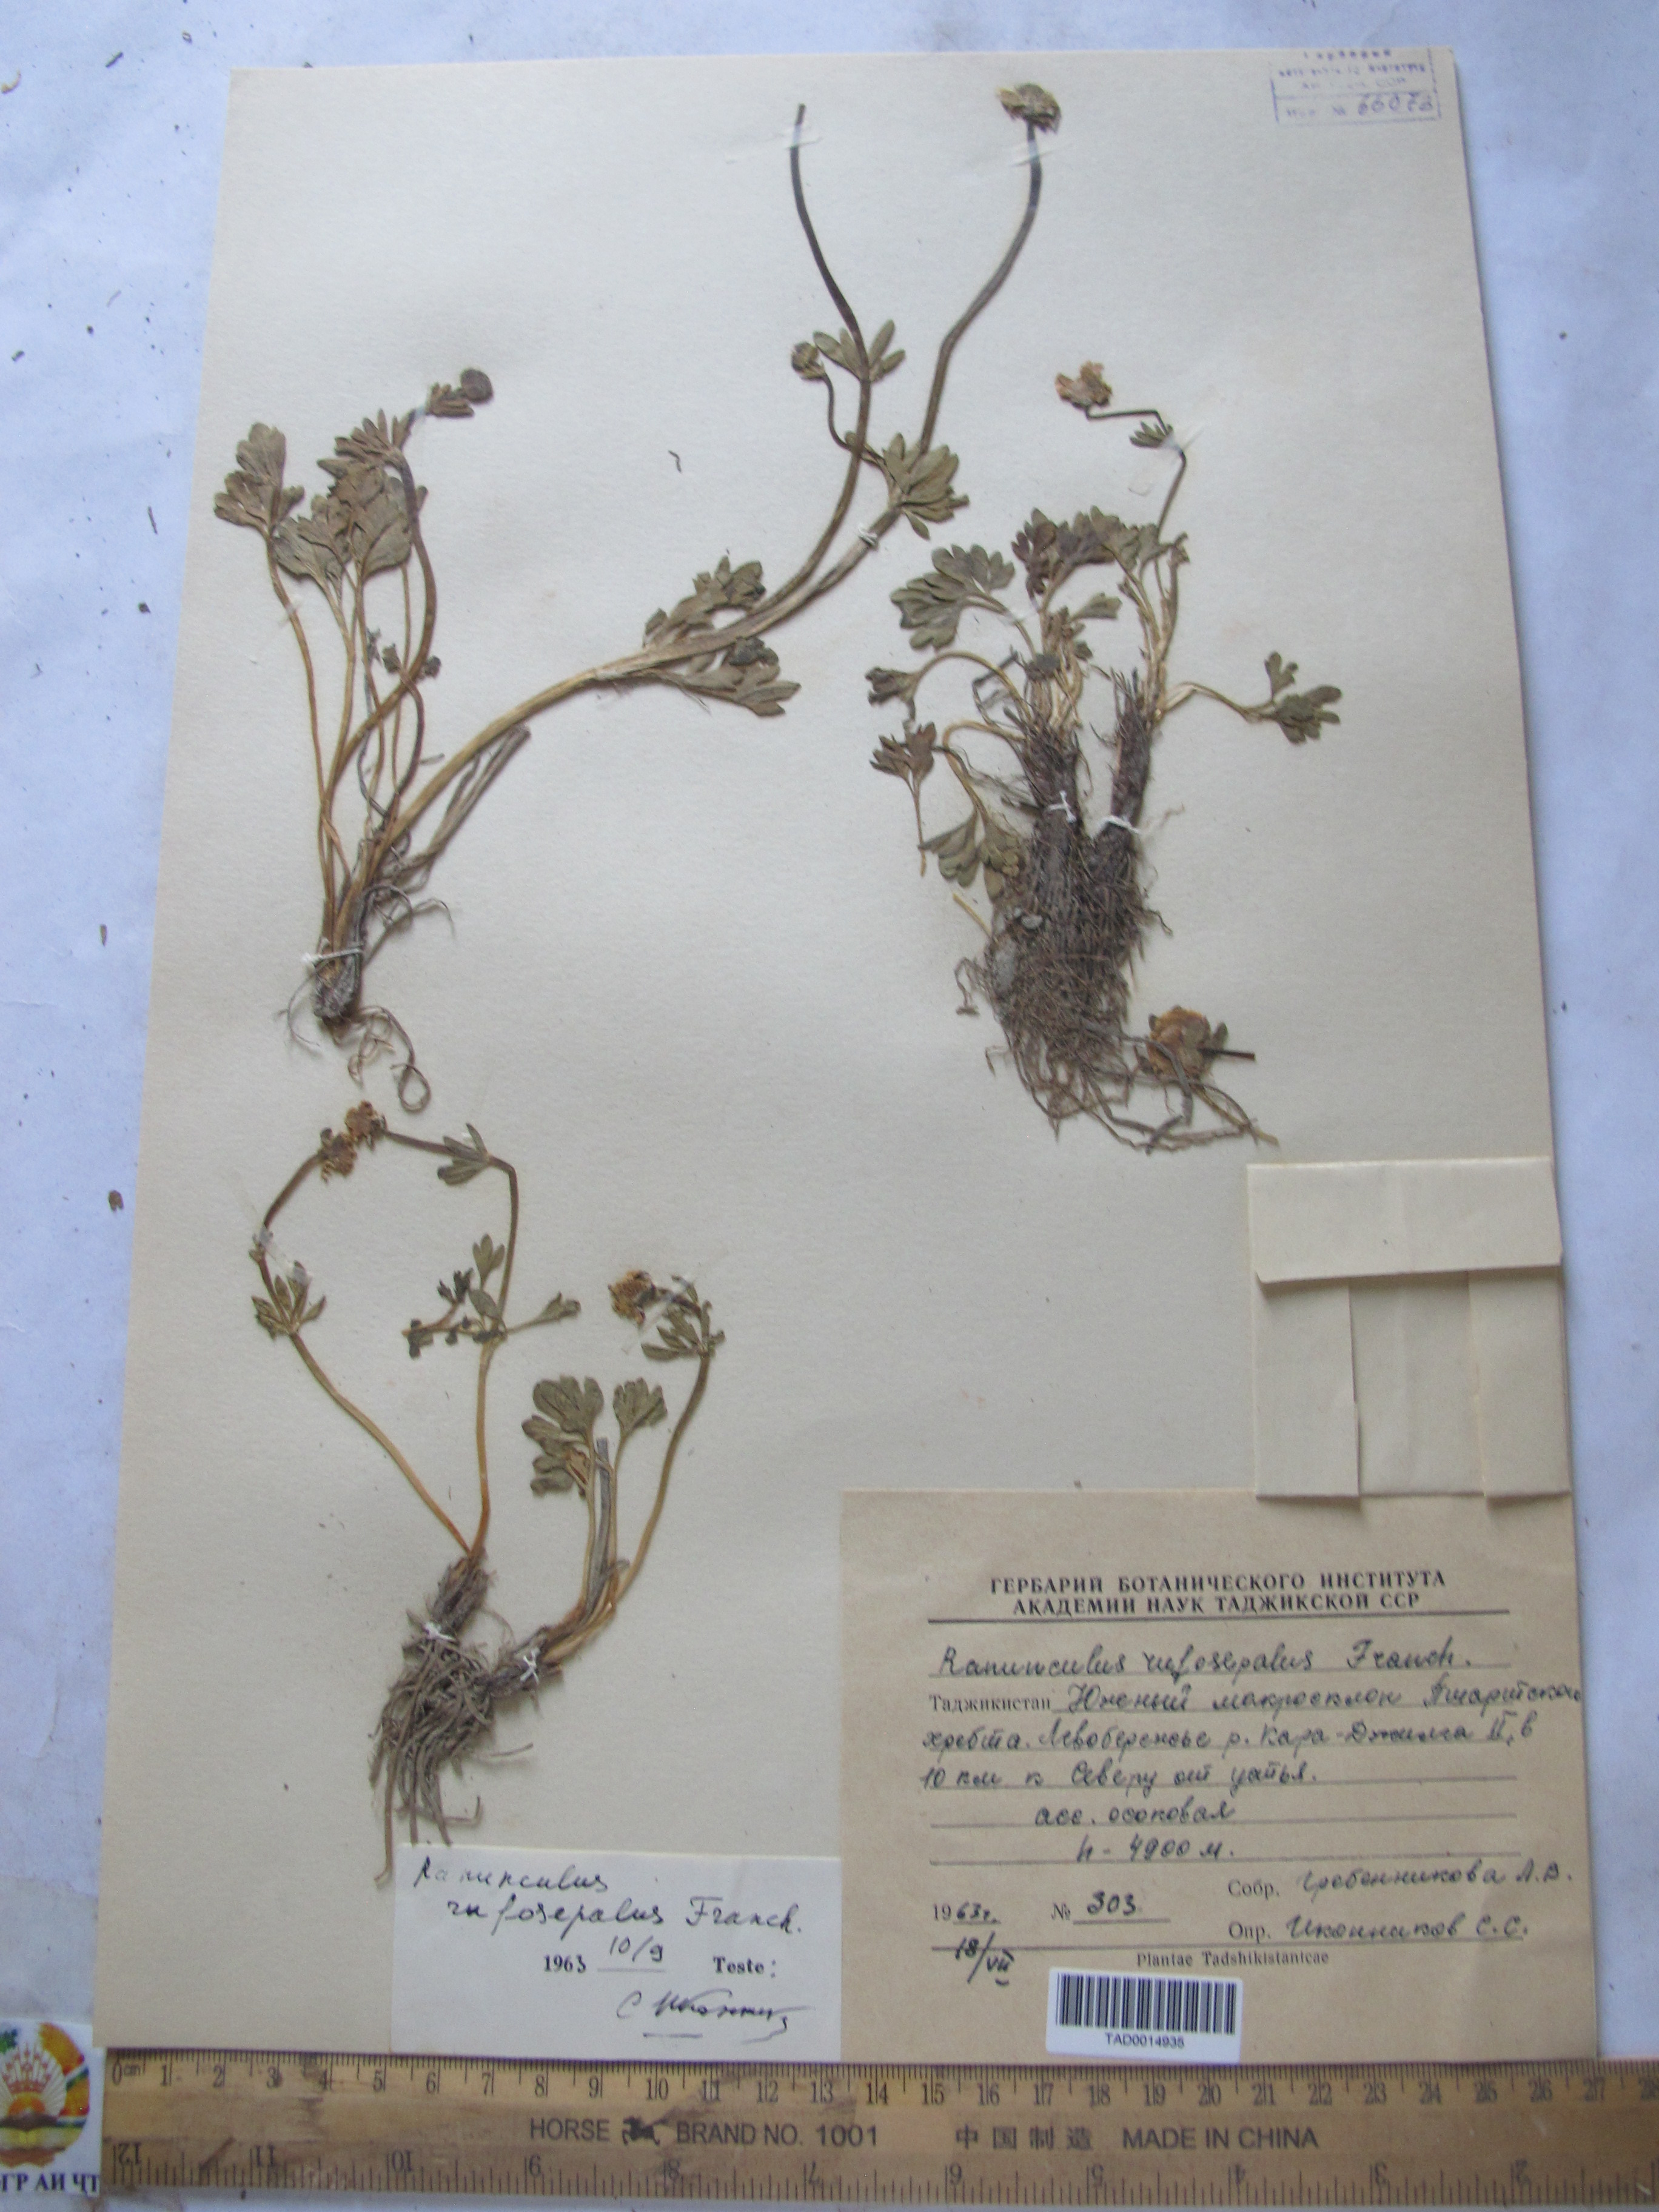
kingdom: Plantae
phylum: Tracheophyta
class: Magnoliopsida
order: Ranunculales
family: Ranunculaceae
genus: Ranunculus
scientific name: Ranunculus rufosepalus
